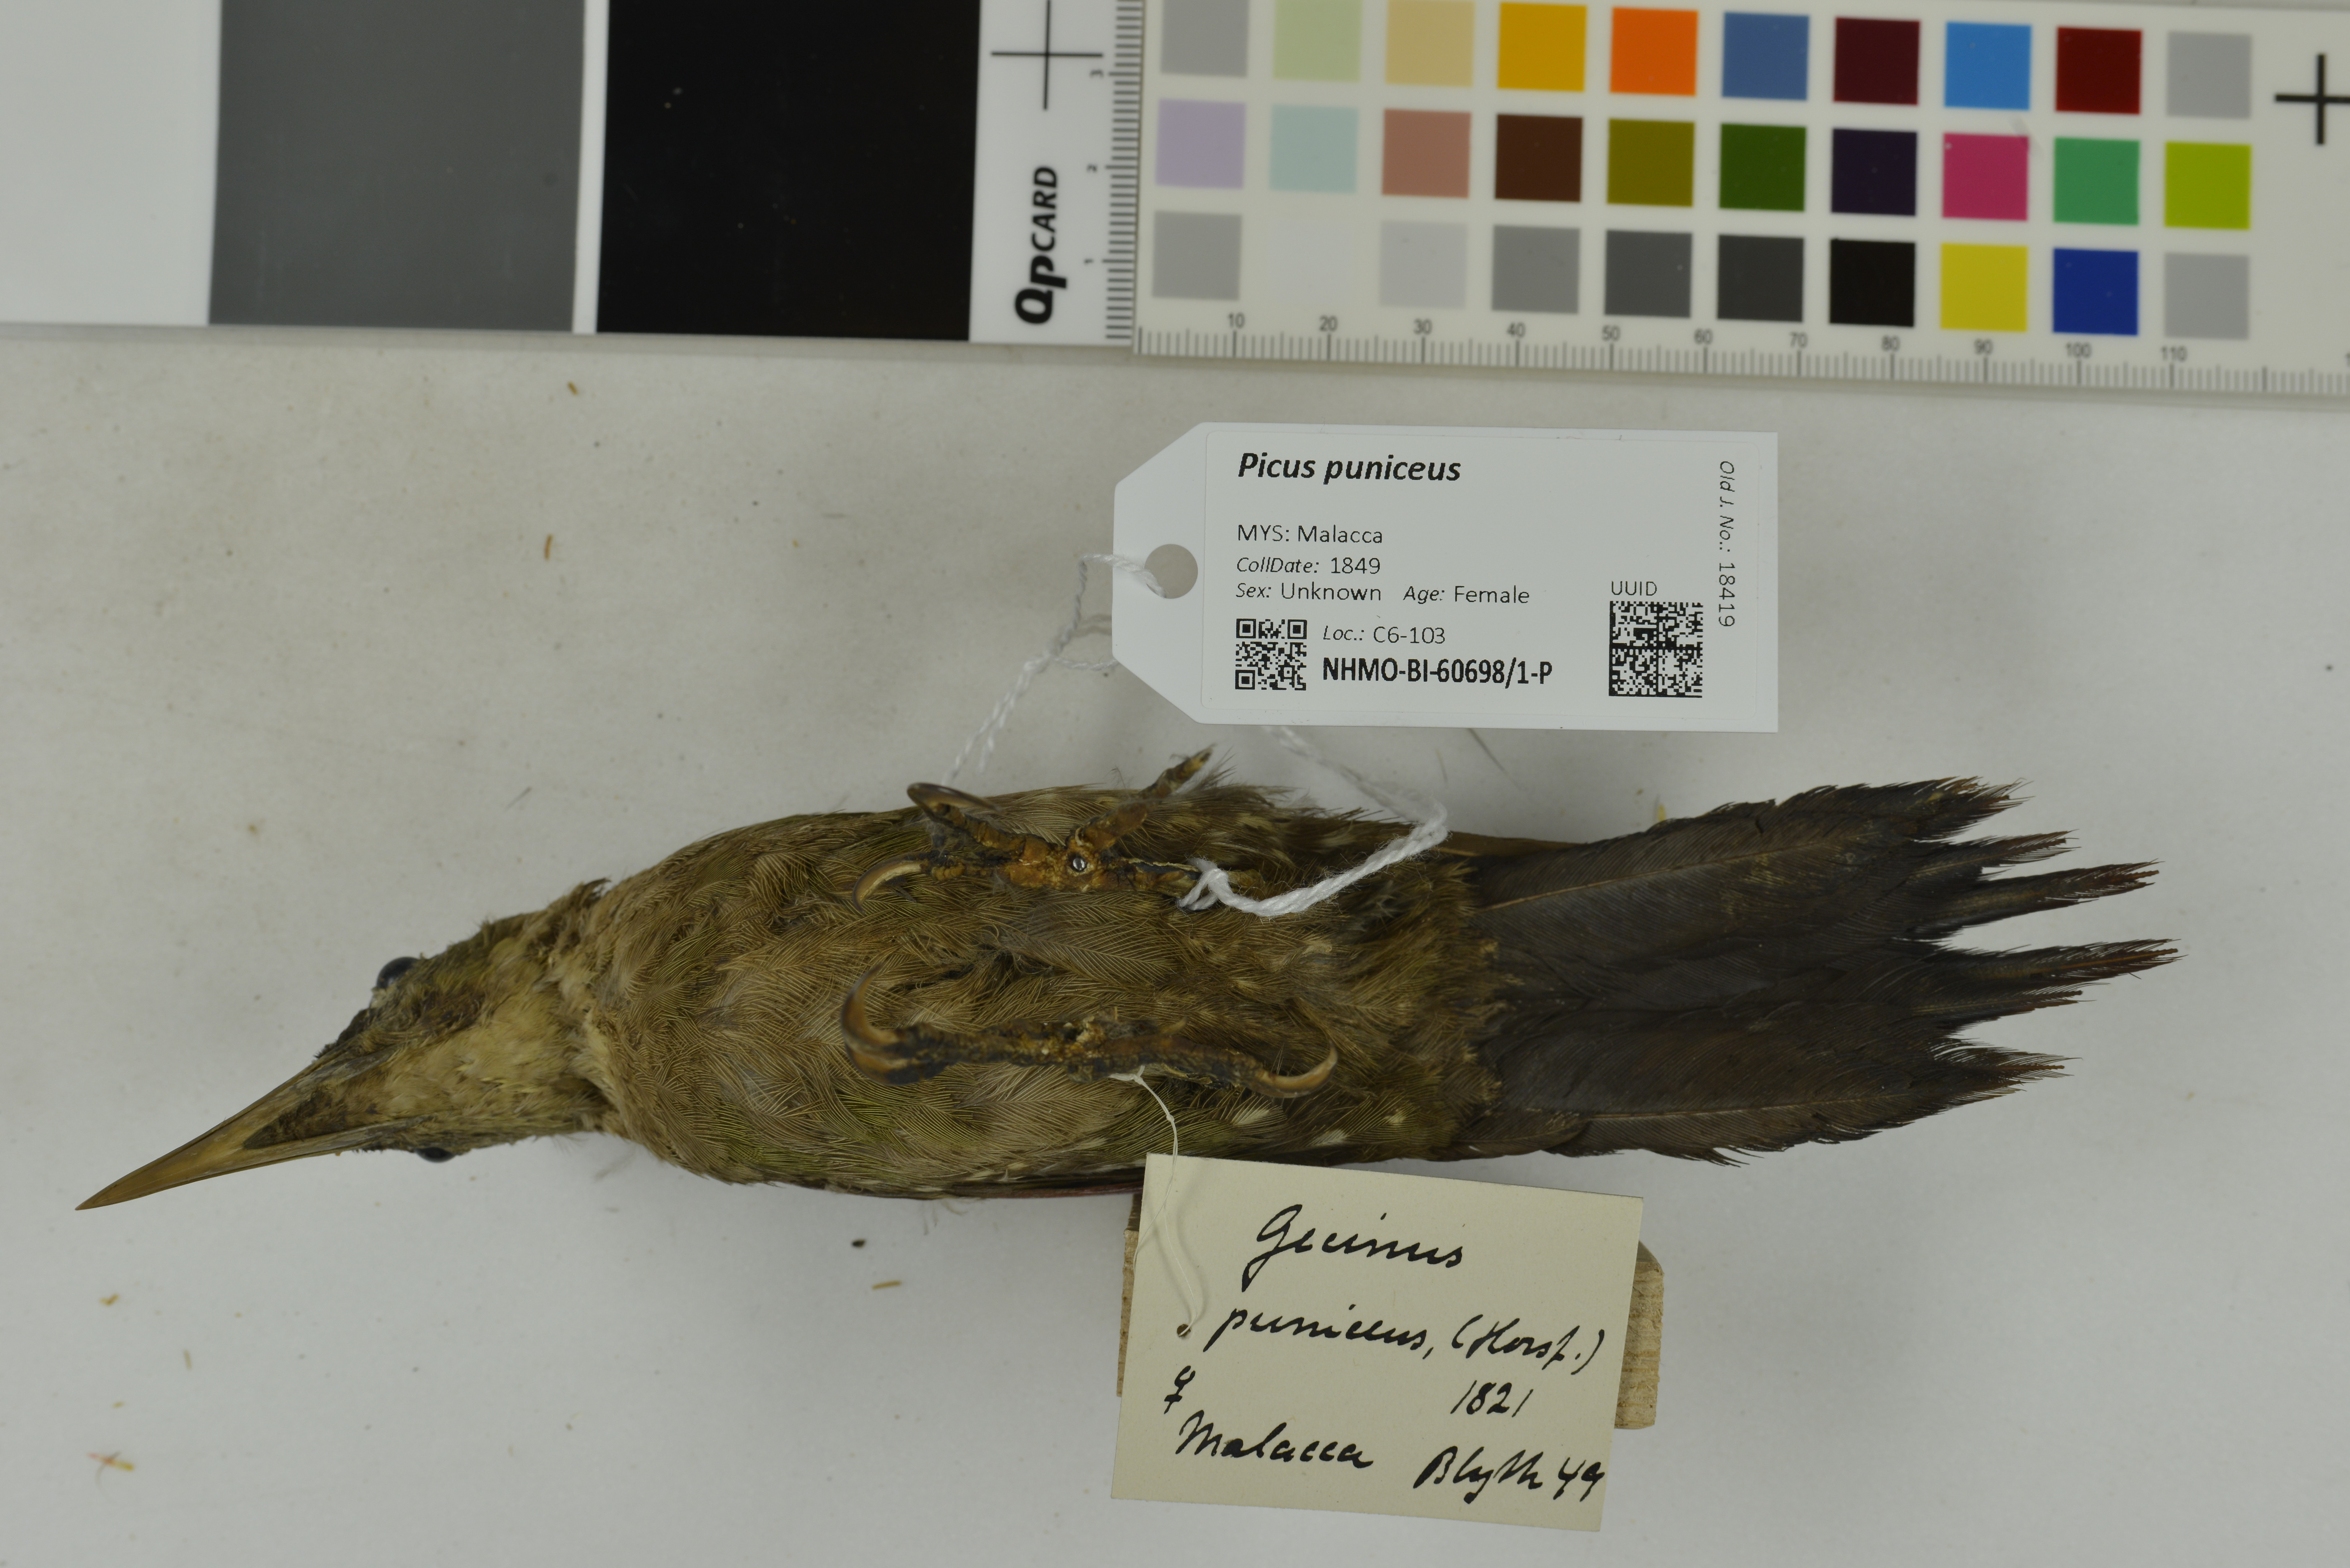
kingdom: Animalia
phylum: Chordata
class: Aves
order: Piciformes
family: Picidae
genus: Picus
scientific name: Picus puniceus
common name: Crimson-winged woodpecker
